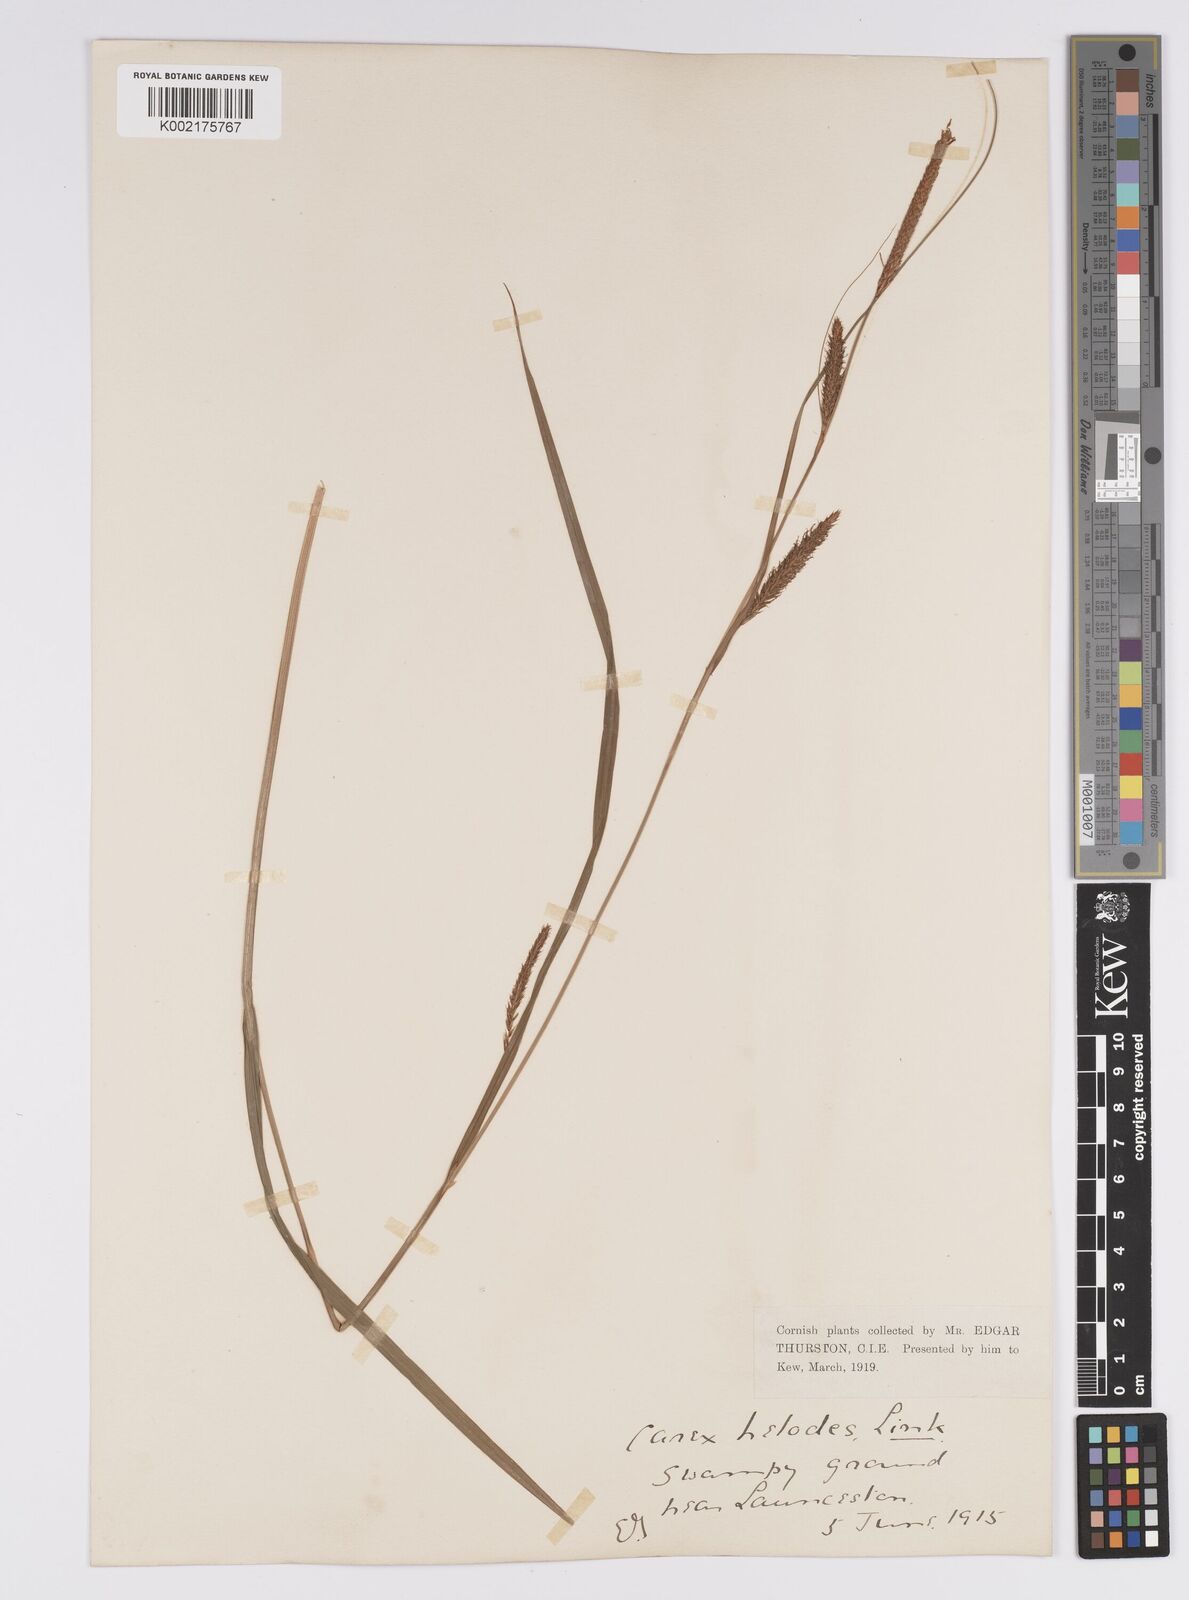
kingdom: Plantae
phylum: Tracheophyta
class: Liliopsida
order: Poales
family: Cyperaceae
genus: Carex
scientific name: Carex laevigata
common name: Smooth-stalked sedge
